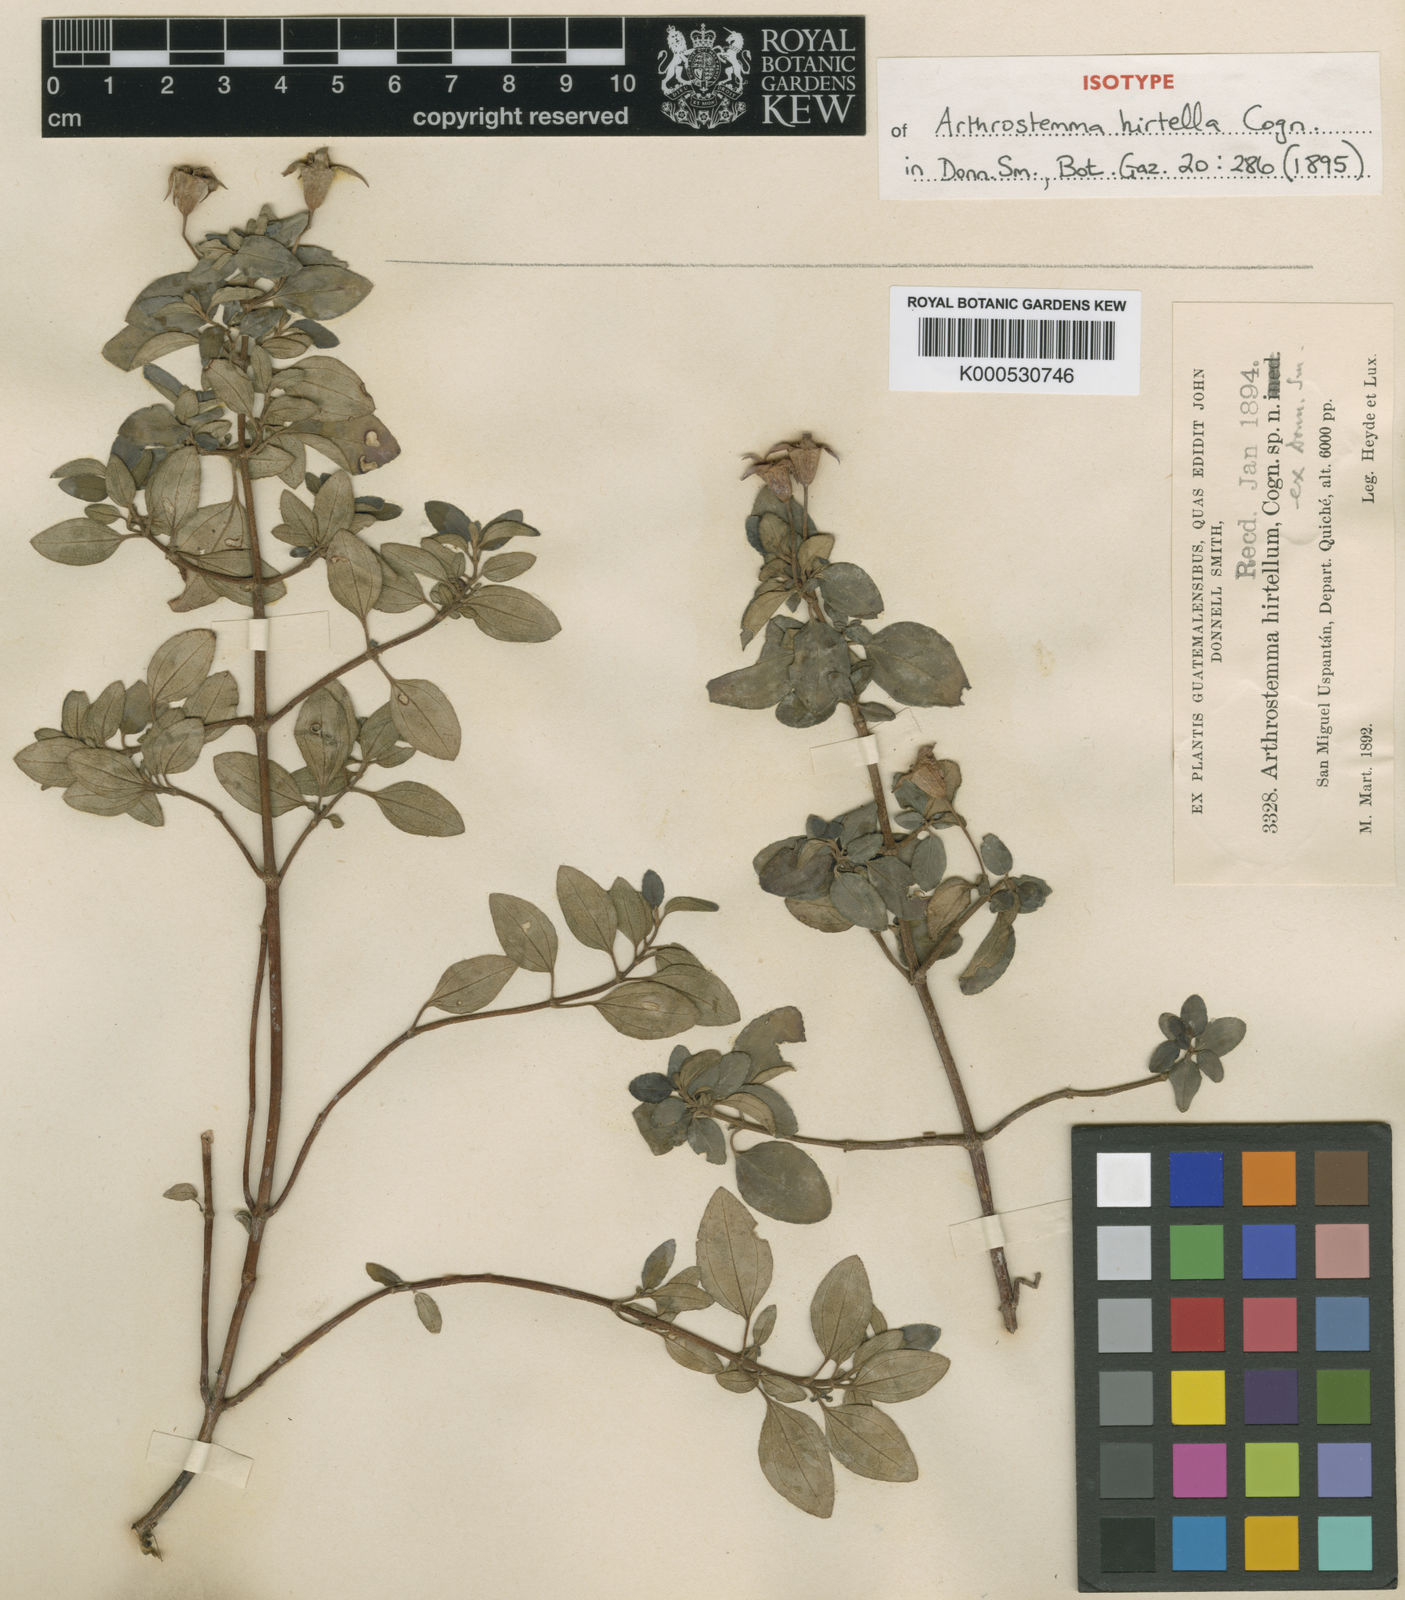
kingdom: Plantae
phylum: Tracheophyta
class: Magnoliopsida
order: Myrtales
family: Melastomataceae
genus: Heterocentron
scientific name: Heterocentron hirtellum
